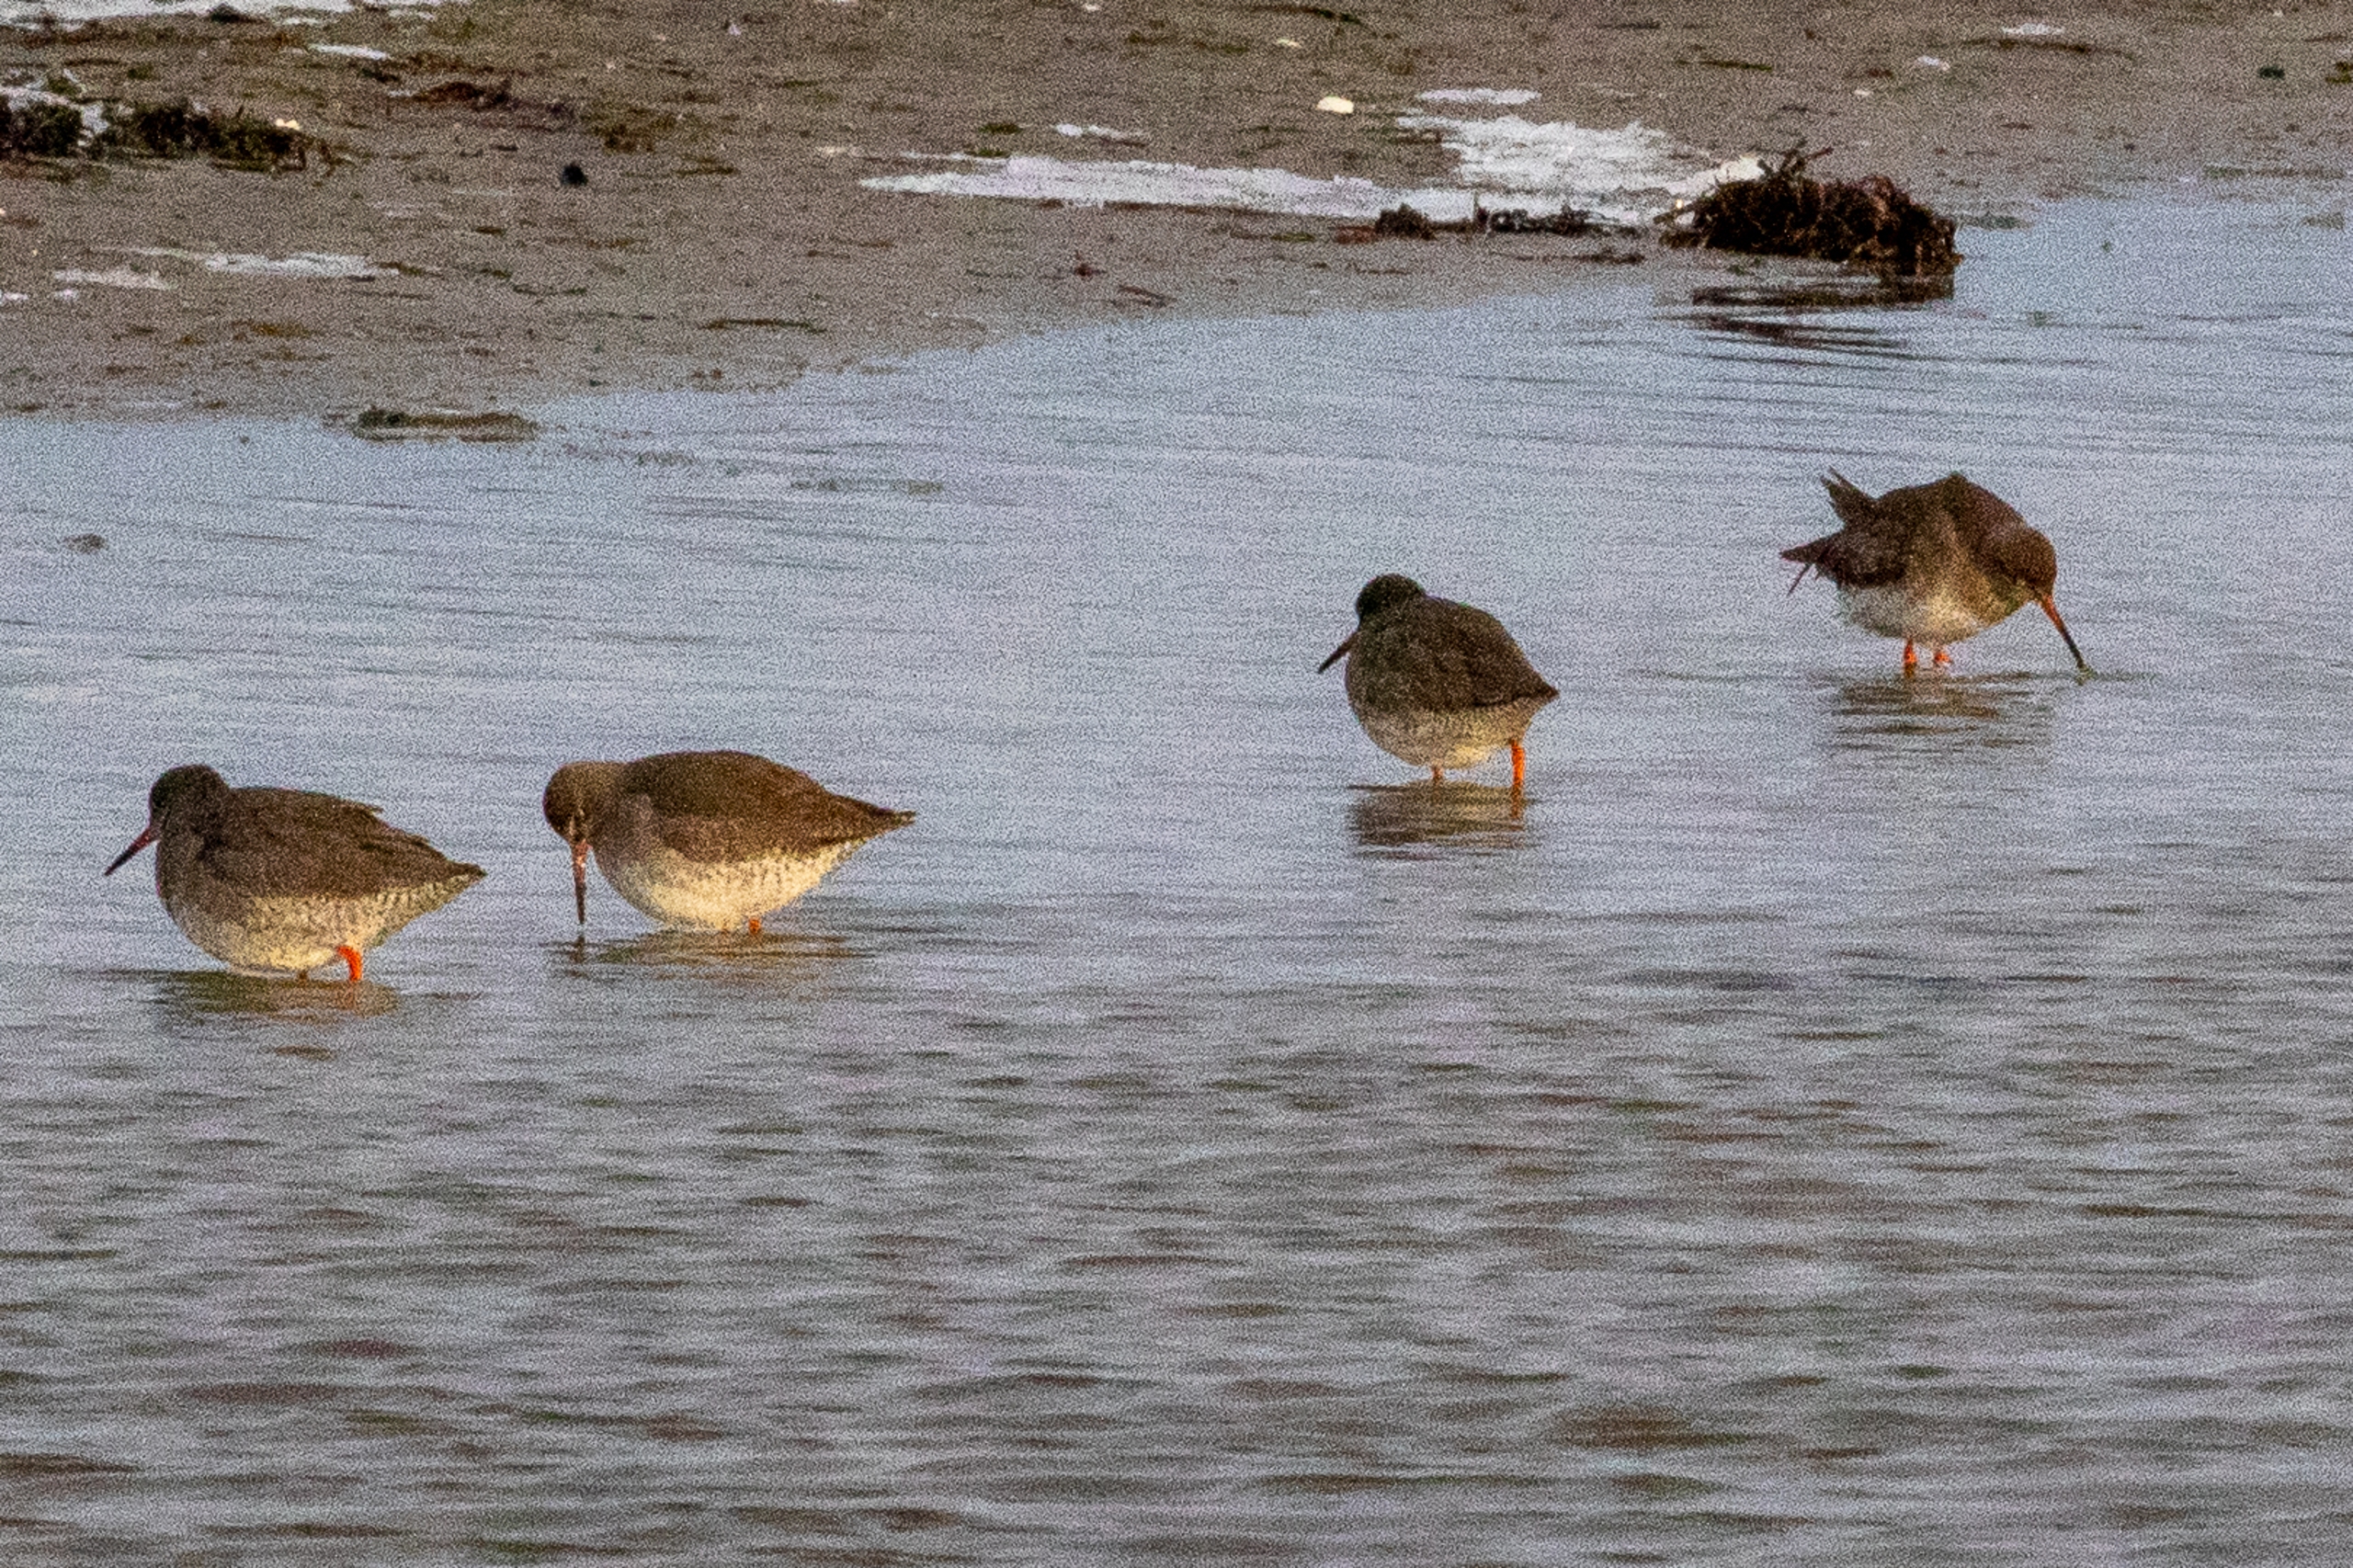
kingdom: Animalia
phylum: Chordata
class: Aves
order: Charadriiformes
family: Scolopacidae
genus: Tringa
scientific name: Tringa totanus
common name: Islandsk rødben
